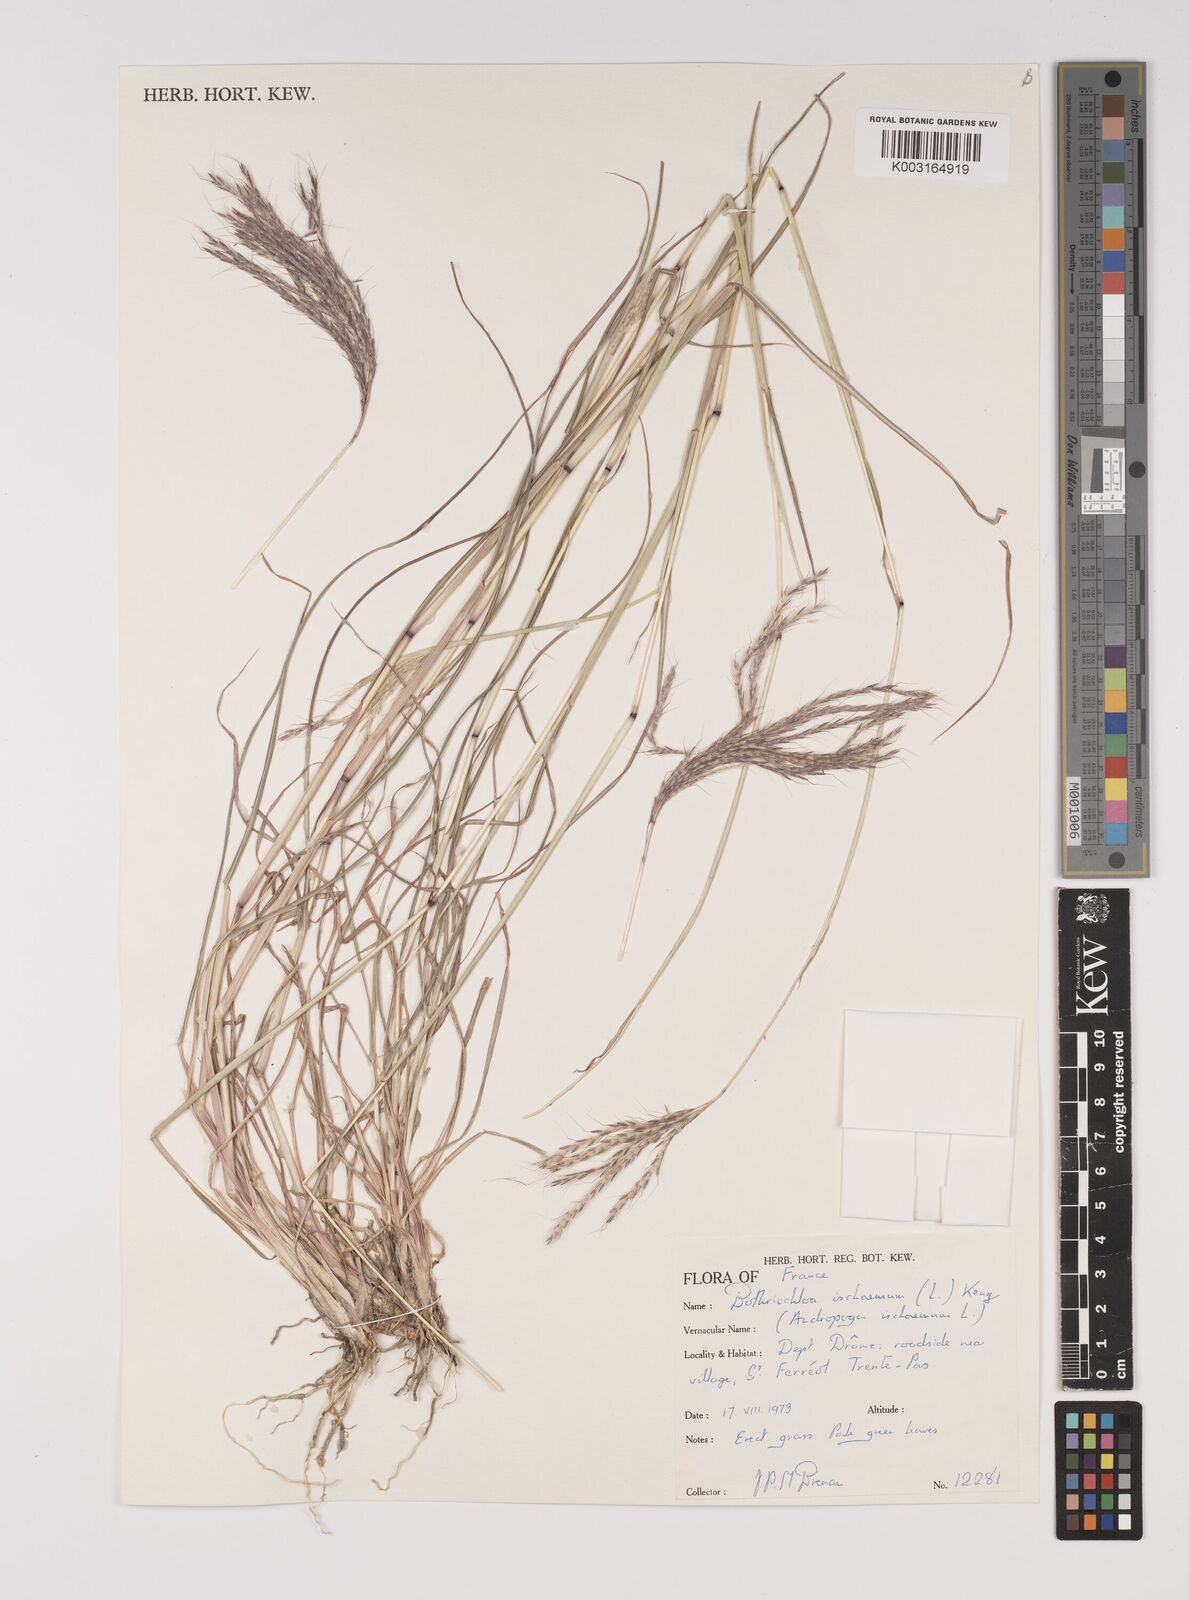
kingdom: Plantae
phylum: Tracheophyta
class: Liliopsida
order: Poales
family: Poaceae
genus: Bothriochloa
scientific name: Bothriochloa ischaemum
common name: Yellow bluestem
